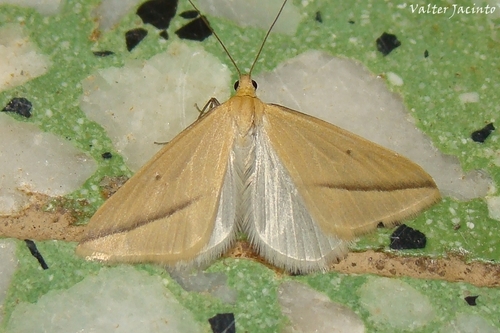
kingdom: Animalia
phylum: Arthropoda
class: Insecta
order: Lepidoptera
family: Geometridae
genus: Rhodometra
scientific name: Rhodometra sacraria
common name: Vestal
